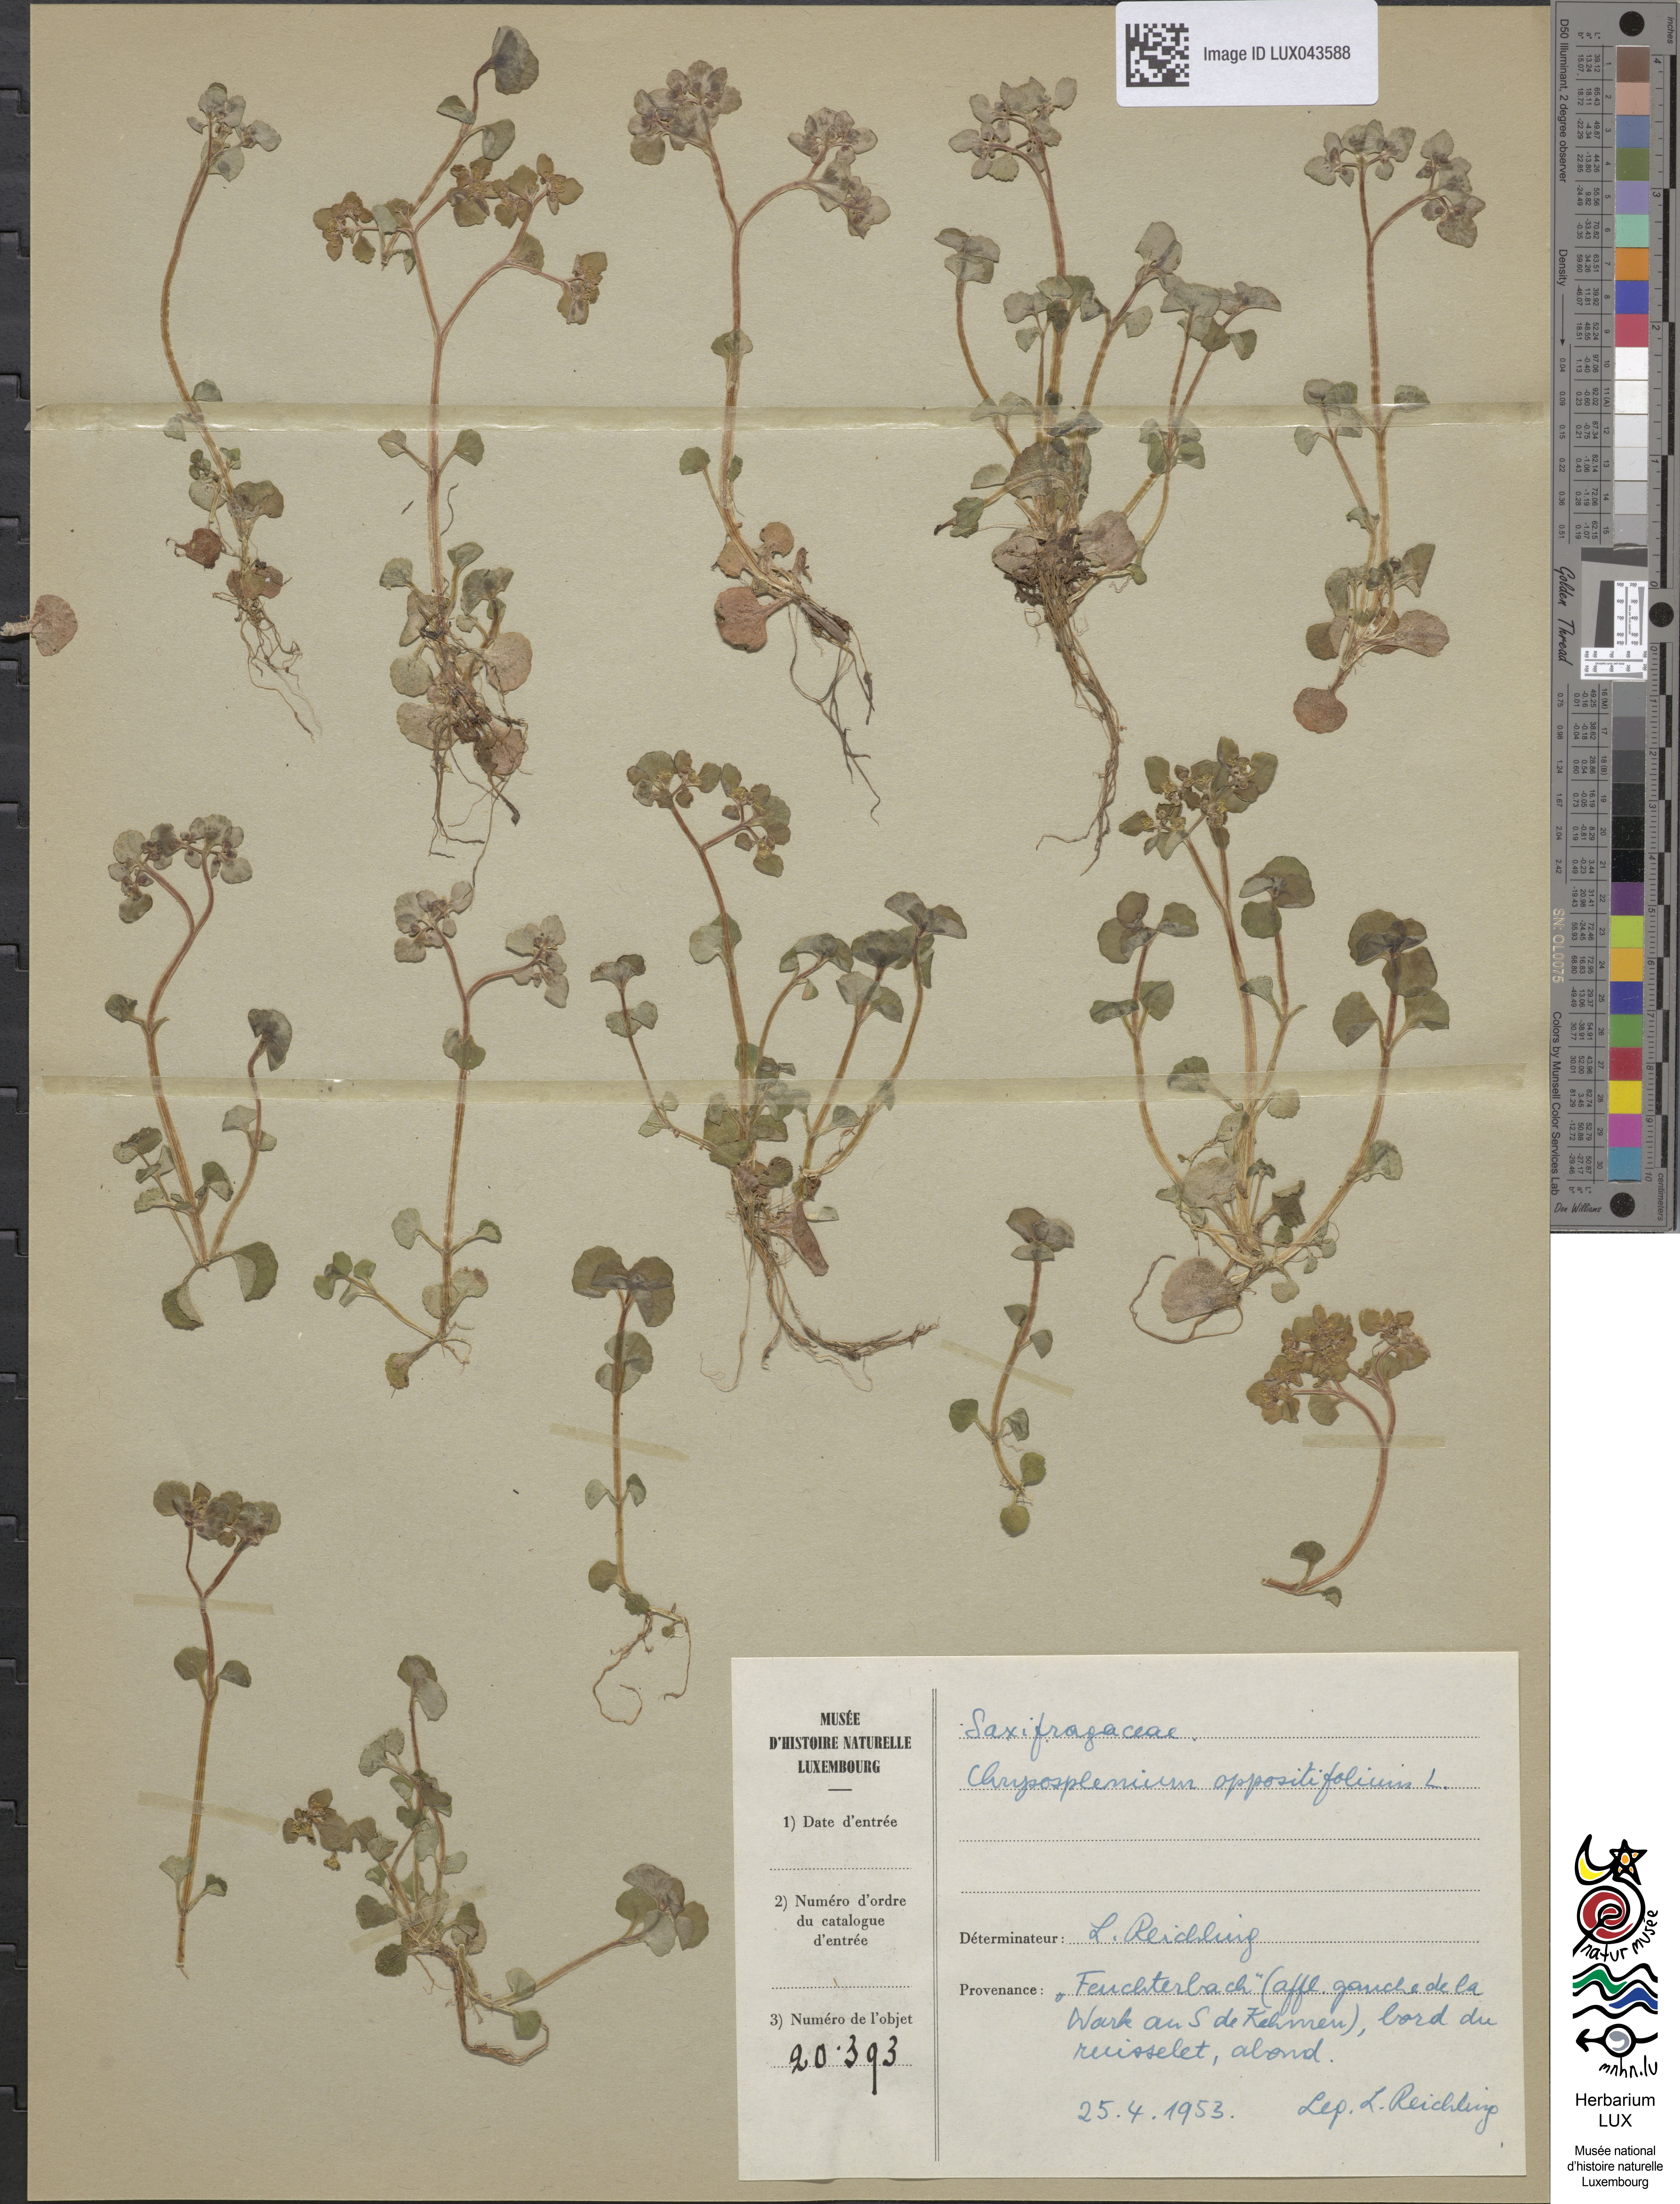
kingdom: Plantae
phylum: Tracheophyta
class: Magnoliopsida
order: Saxifragales
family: Saxifragaceae
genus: Chrysosplenium
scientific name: Chrysosplenium oppositifolium
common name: Opposite-leaved golden-saxifrage
